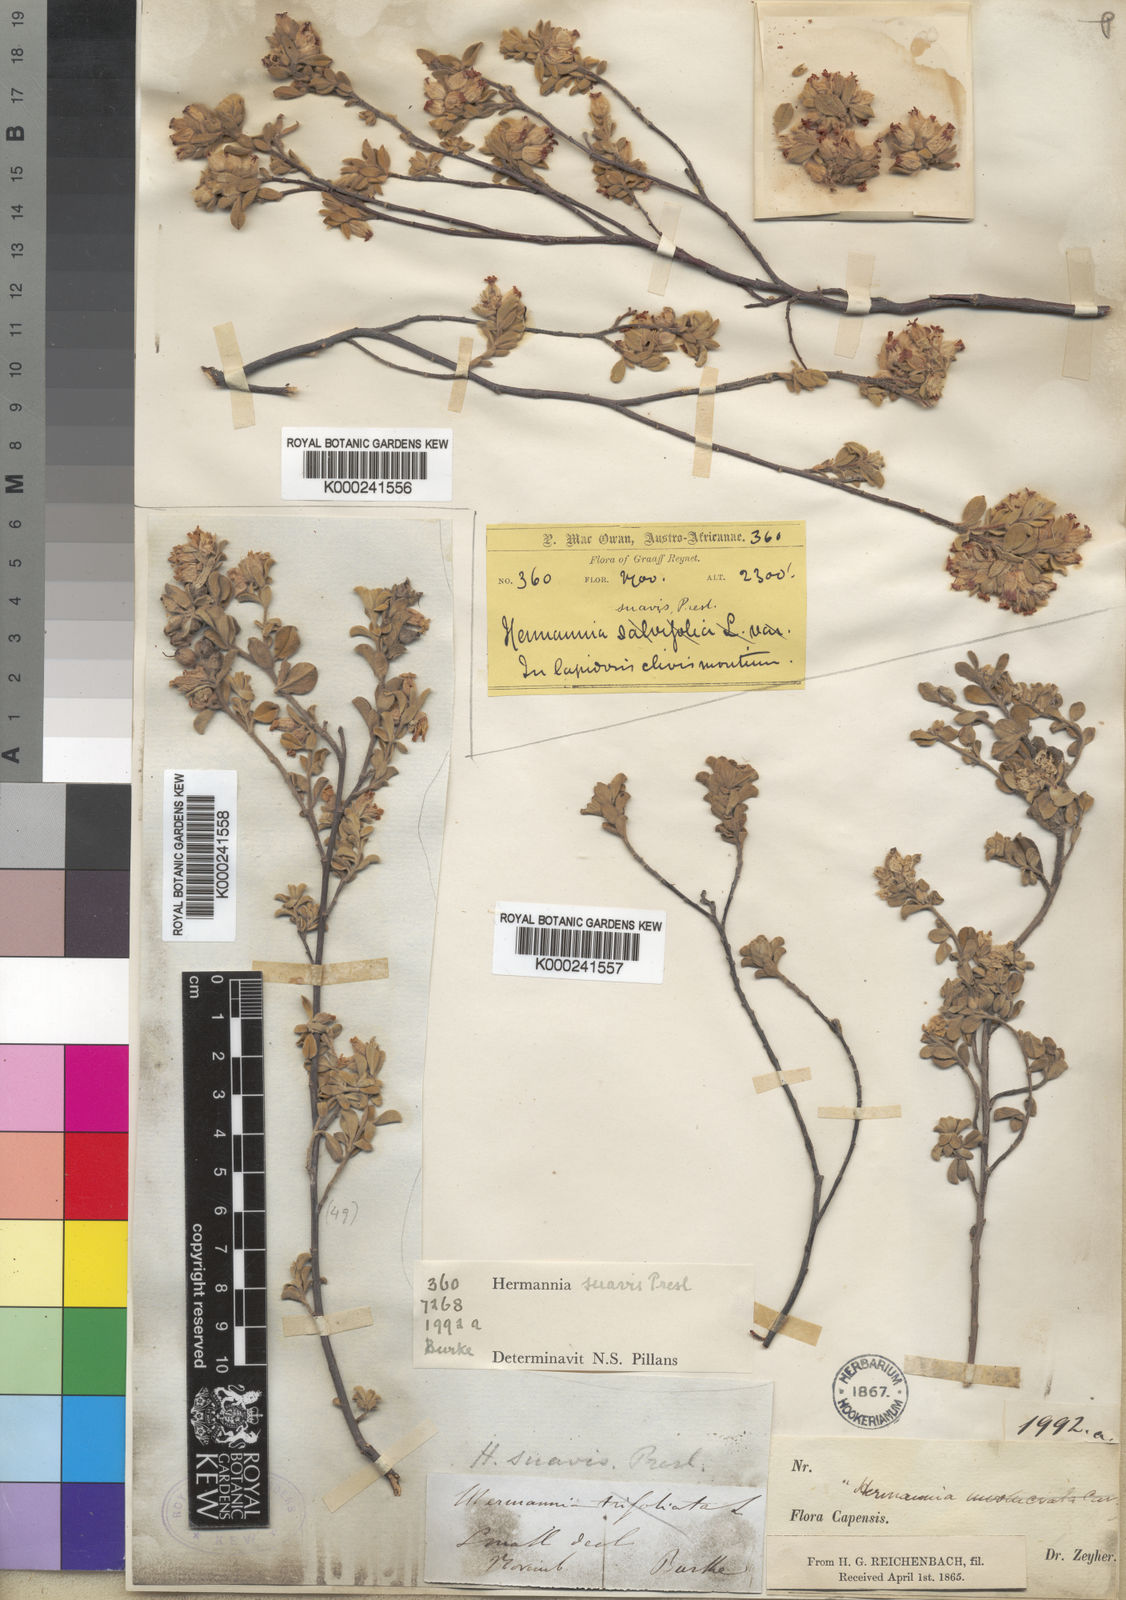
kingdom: Plantae
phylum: Tracheophyta
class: Magnoliopsida
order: Malvales
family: Malvaceae
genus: Hermannia
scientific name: Hermannia
